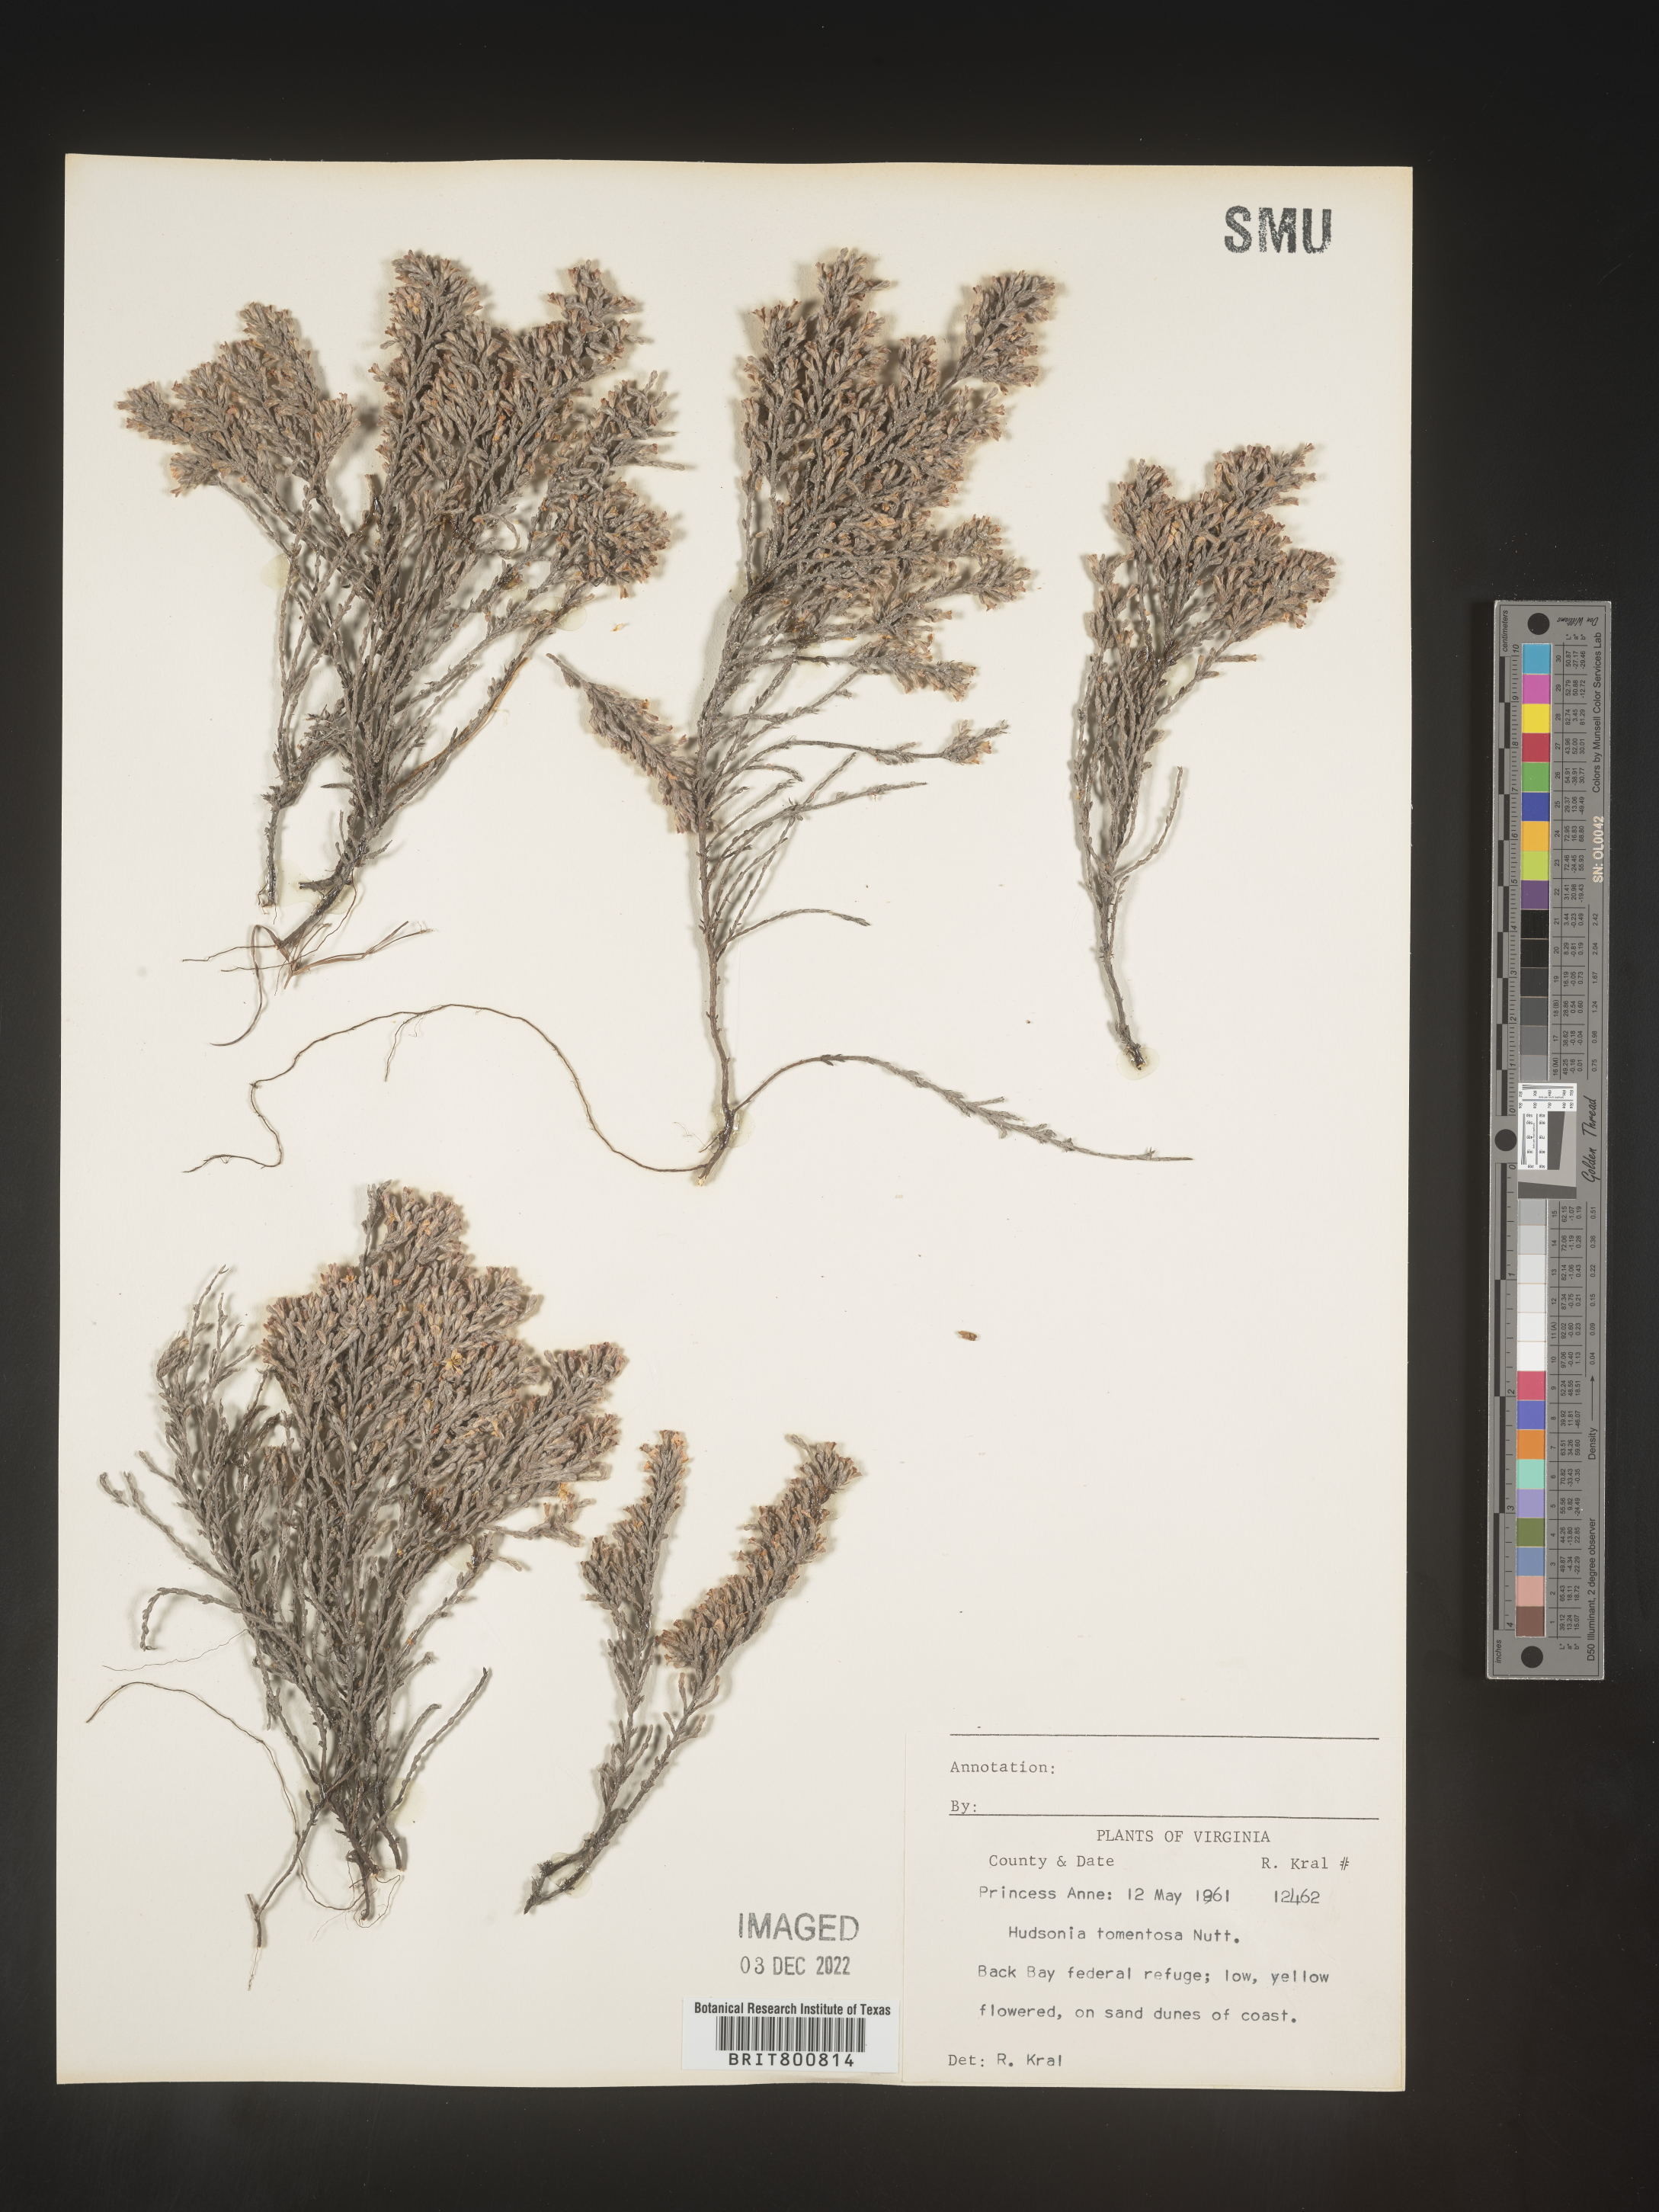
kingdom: Plantae
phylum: Tracheophyta
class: Magnoliopsida
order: Malvales
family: Cistaceae
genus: Hudsonia
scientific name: Hudsonia tomentosa
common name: Beach-heath
